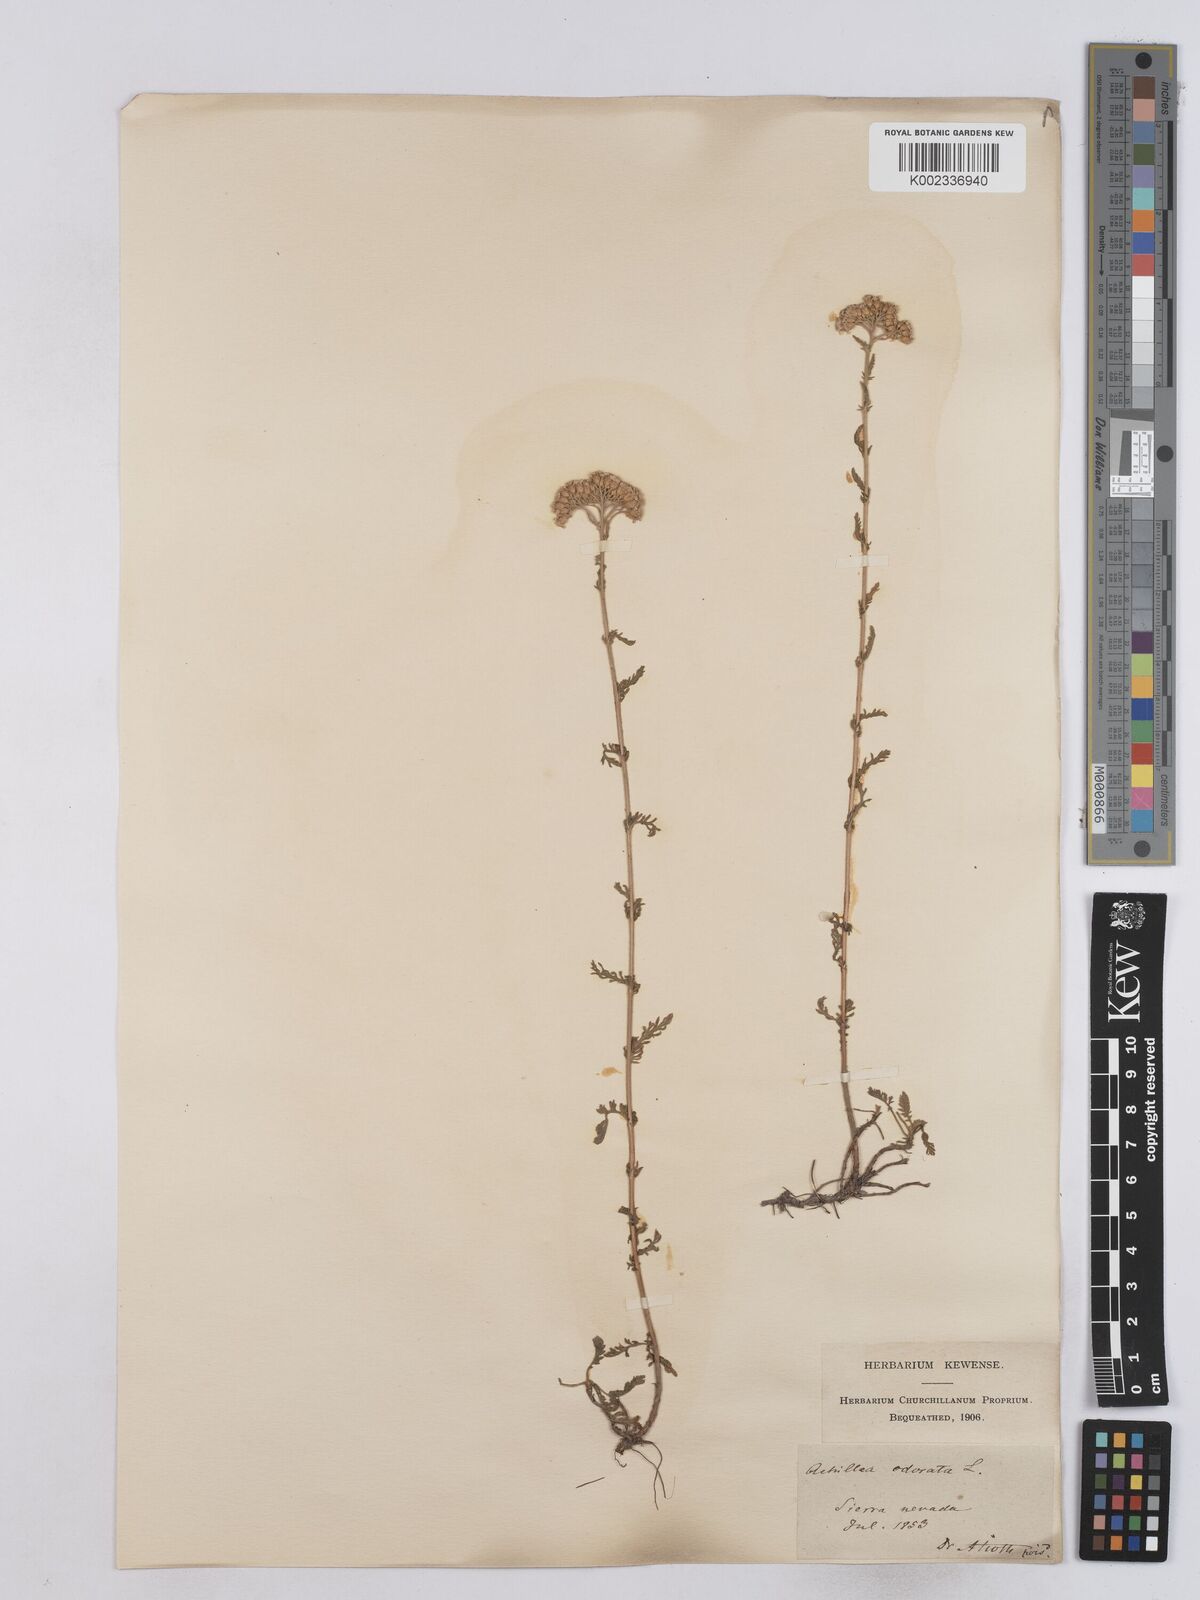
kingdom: Plantae
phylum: Tracheophyta
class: Magnoliopsida
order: Asterales
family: Asteraceae
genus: Achillea
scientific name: Achillea odorata
